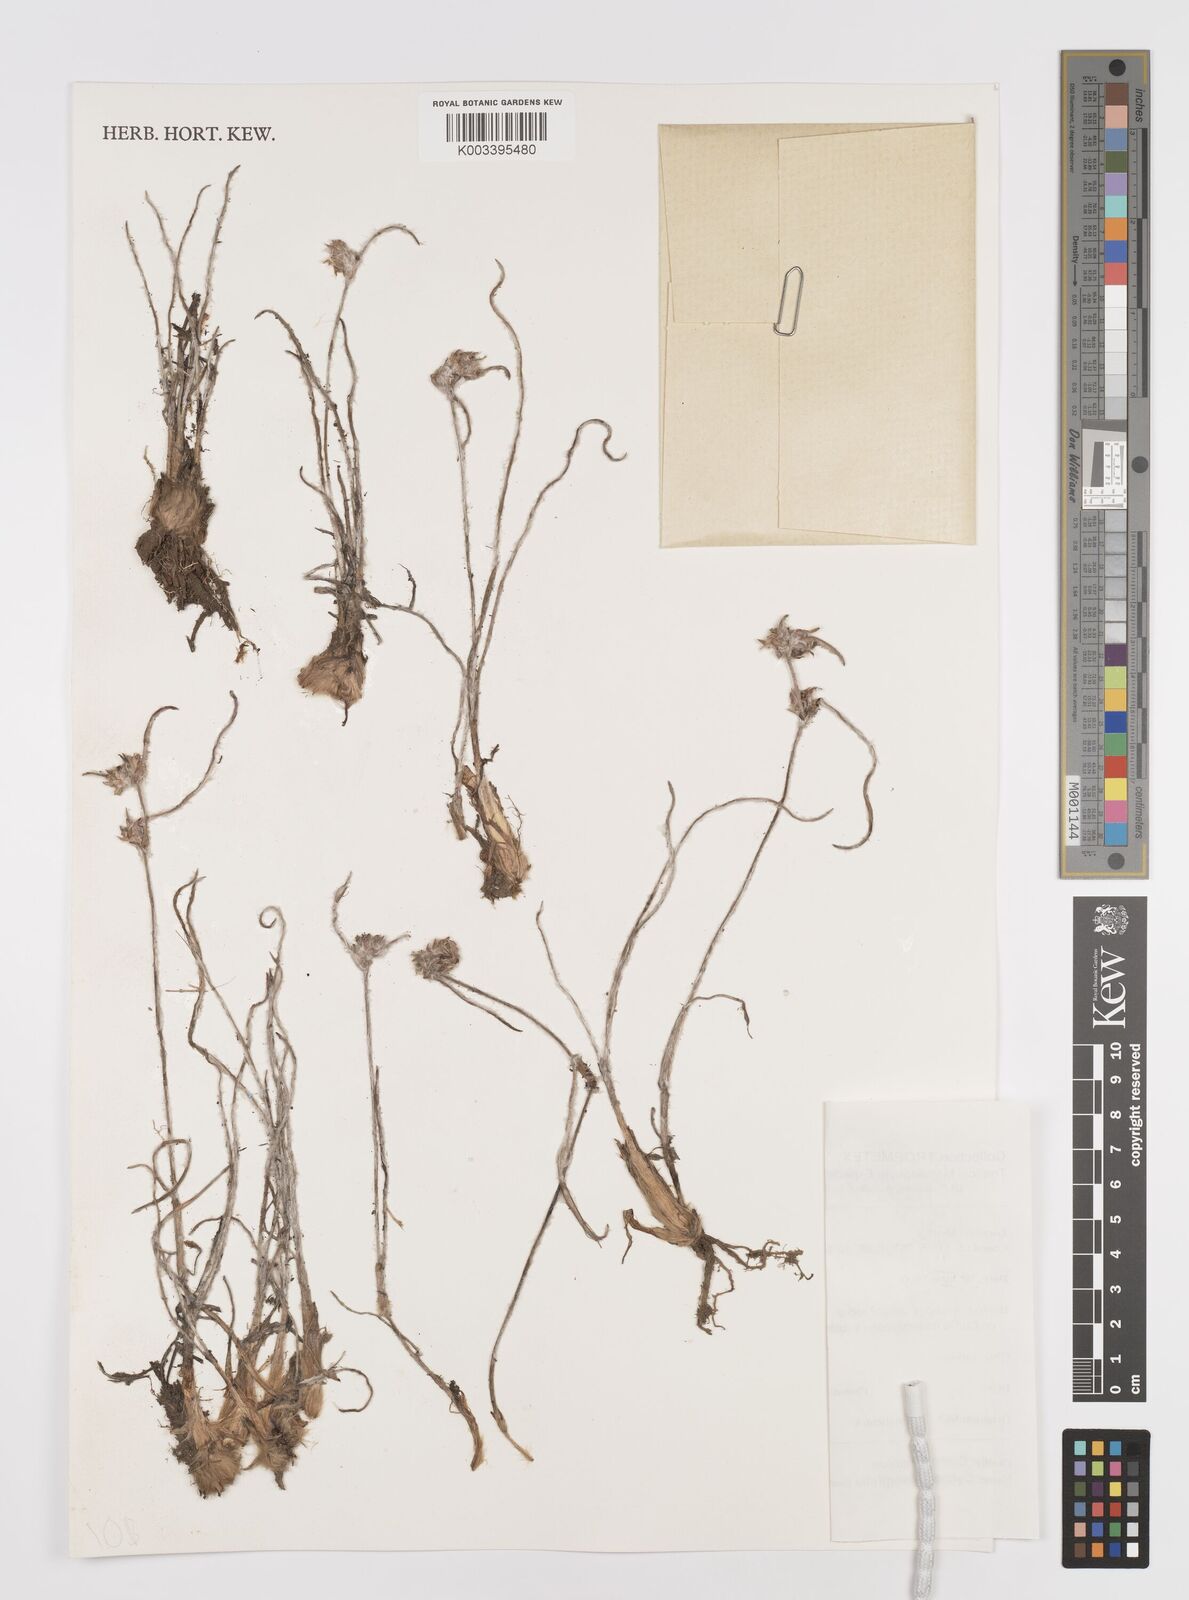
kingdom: Plantae
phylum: Tracheophyta
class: Liliopsida
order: Commelinales
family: Commelinaceae
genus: Cyanotis
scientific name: Cyanotis longifolia
